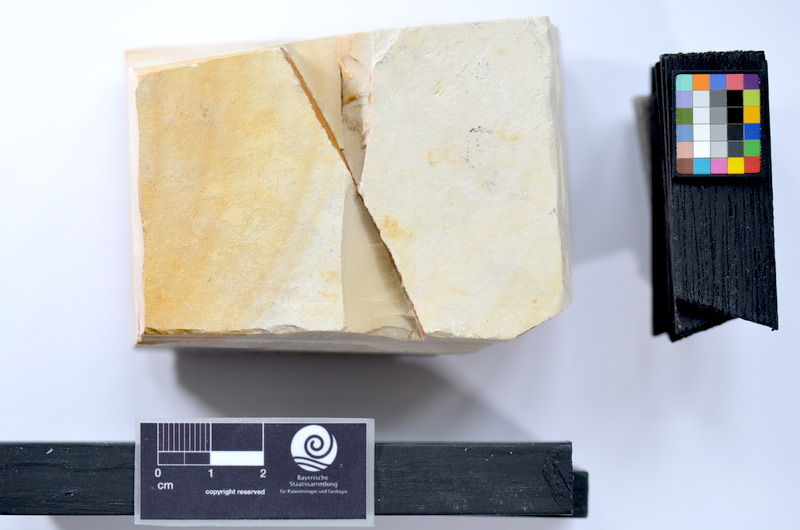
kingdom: Animalia
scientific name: Animalia
